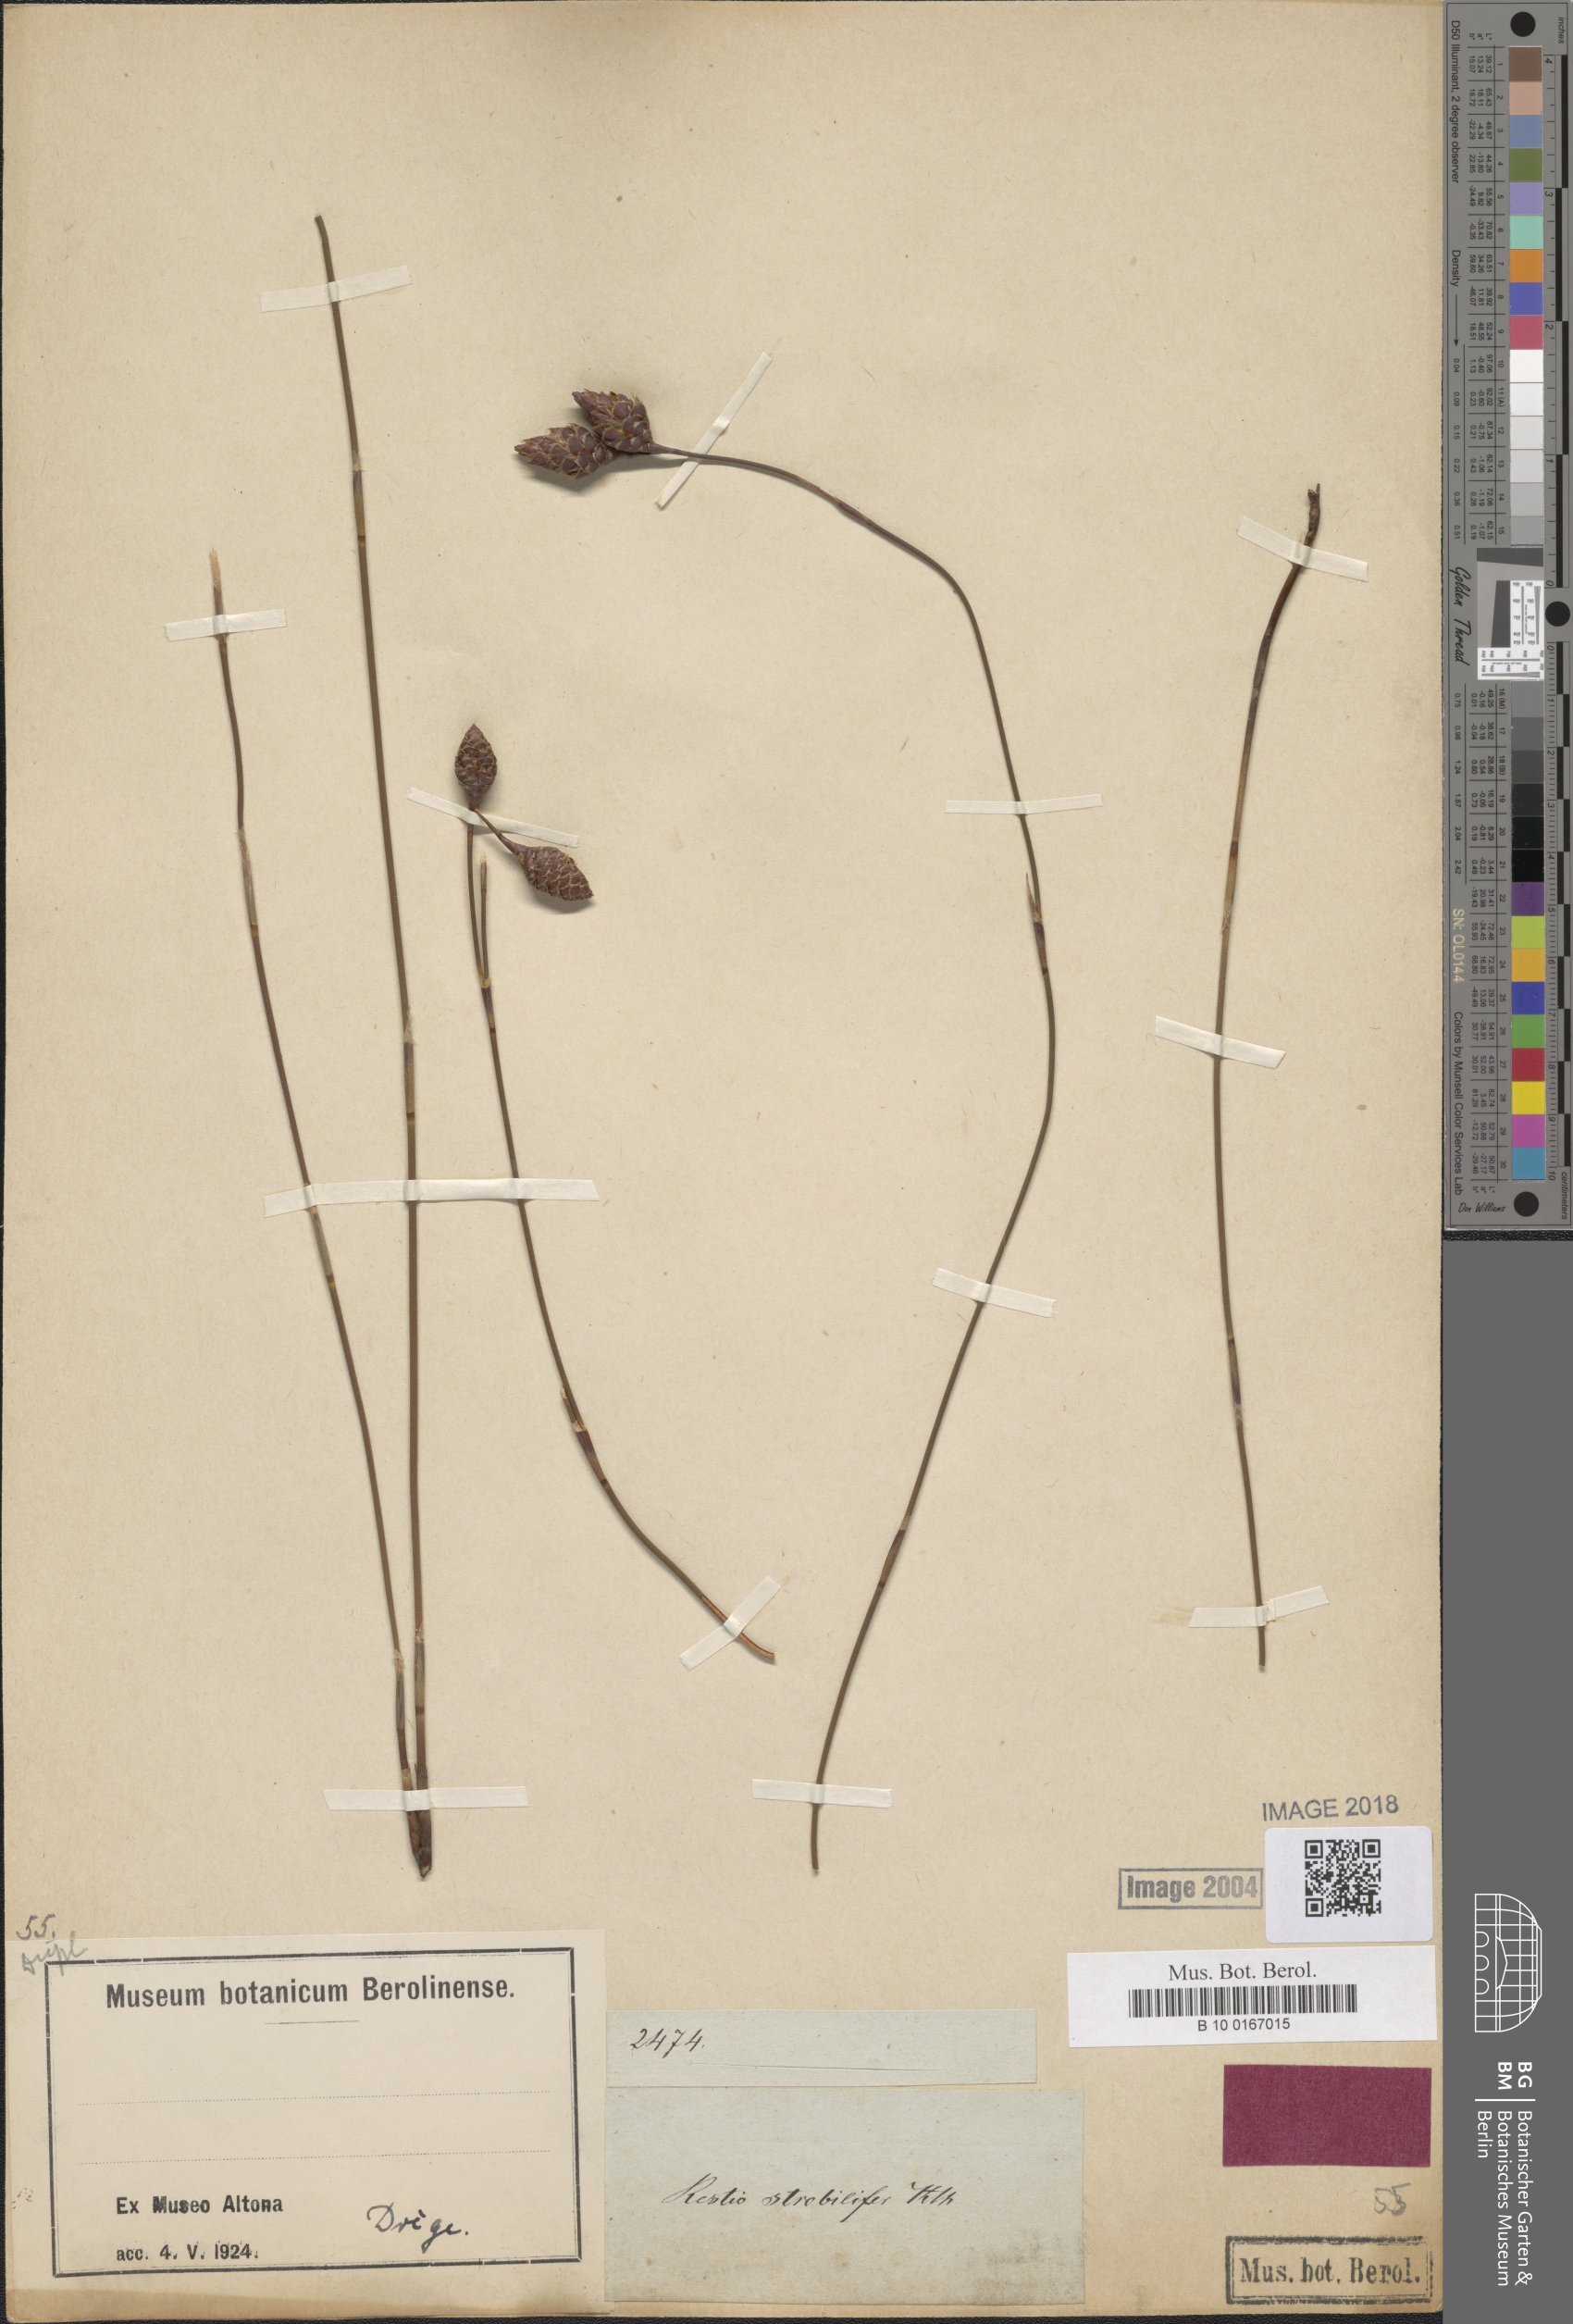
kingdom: Plantae
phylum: Tracheophyta
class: Liliopsida
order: Poales
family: Restionaceae
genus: Restio
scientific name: Restio strobilifer
